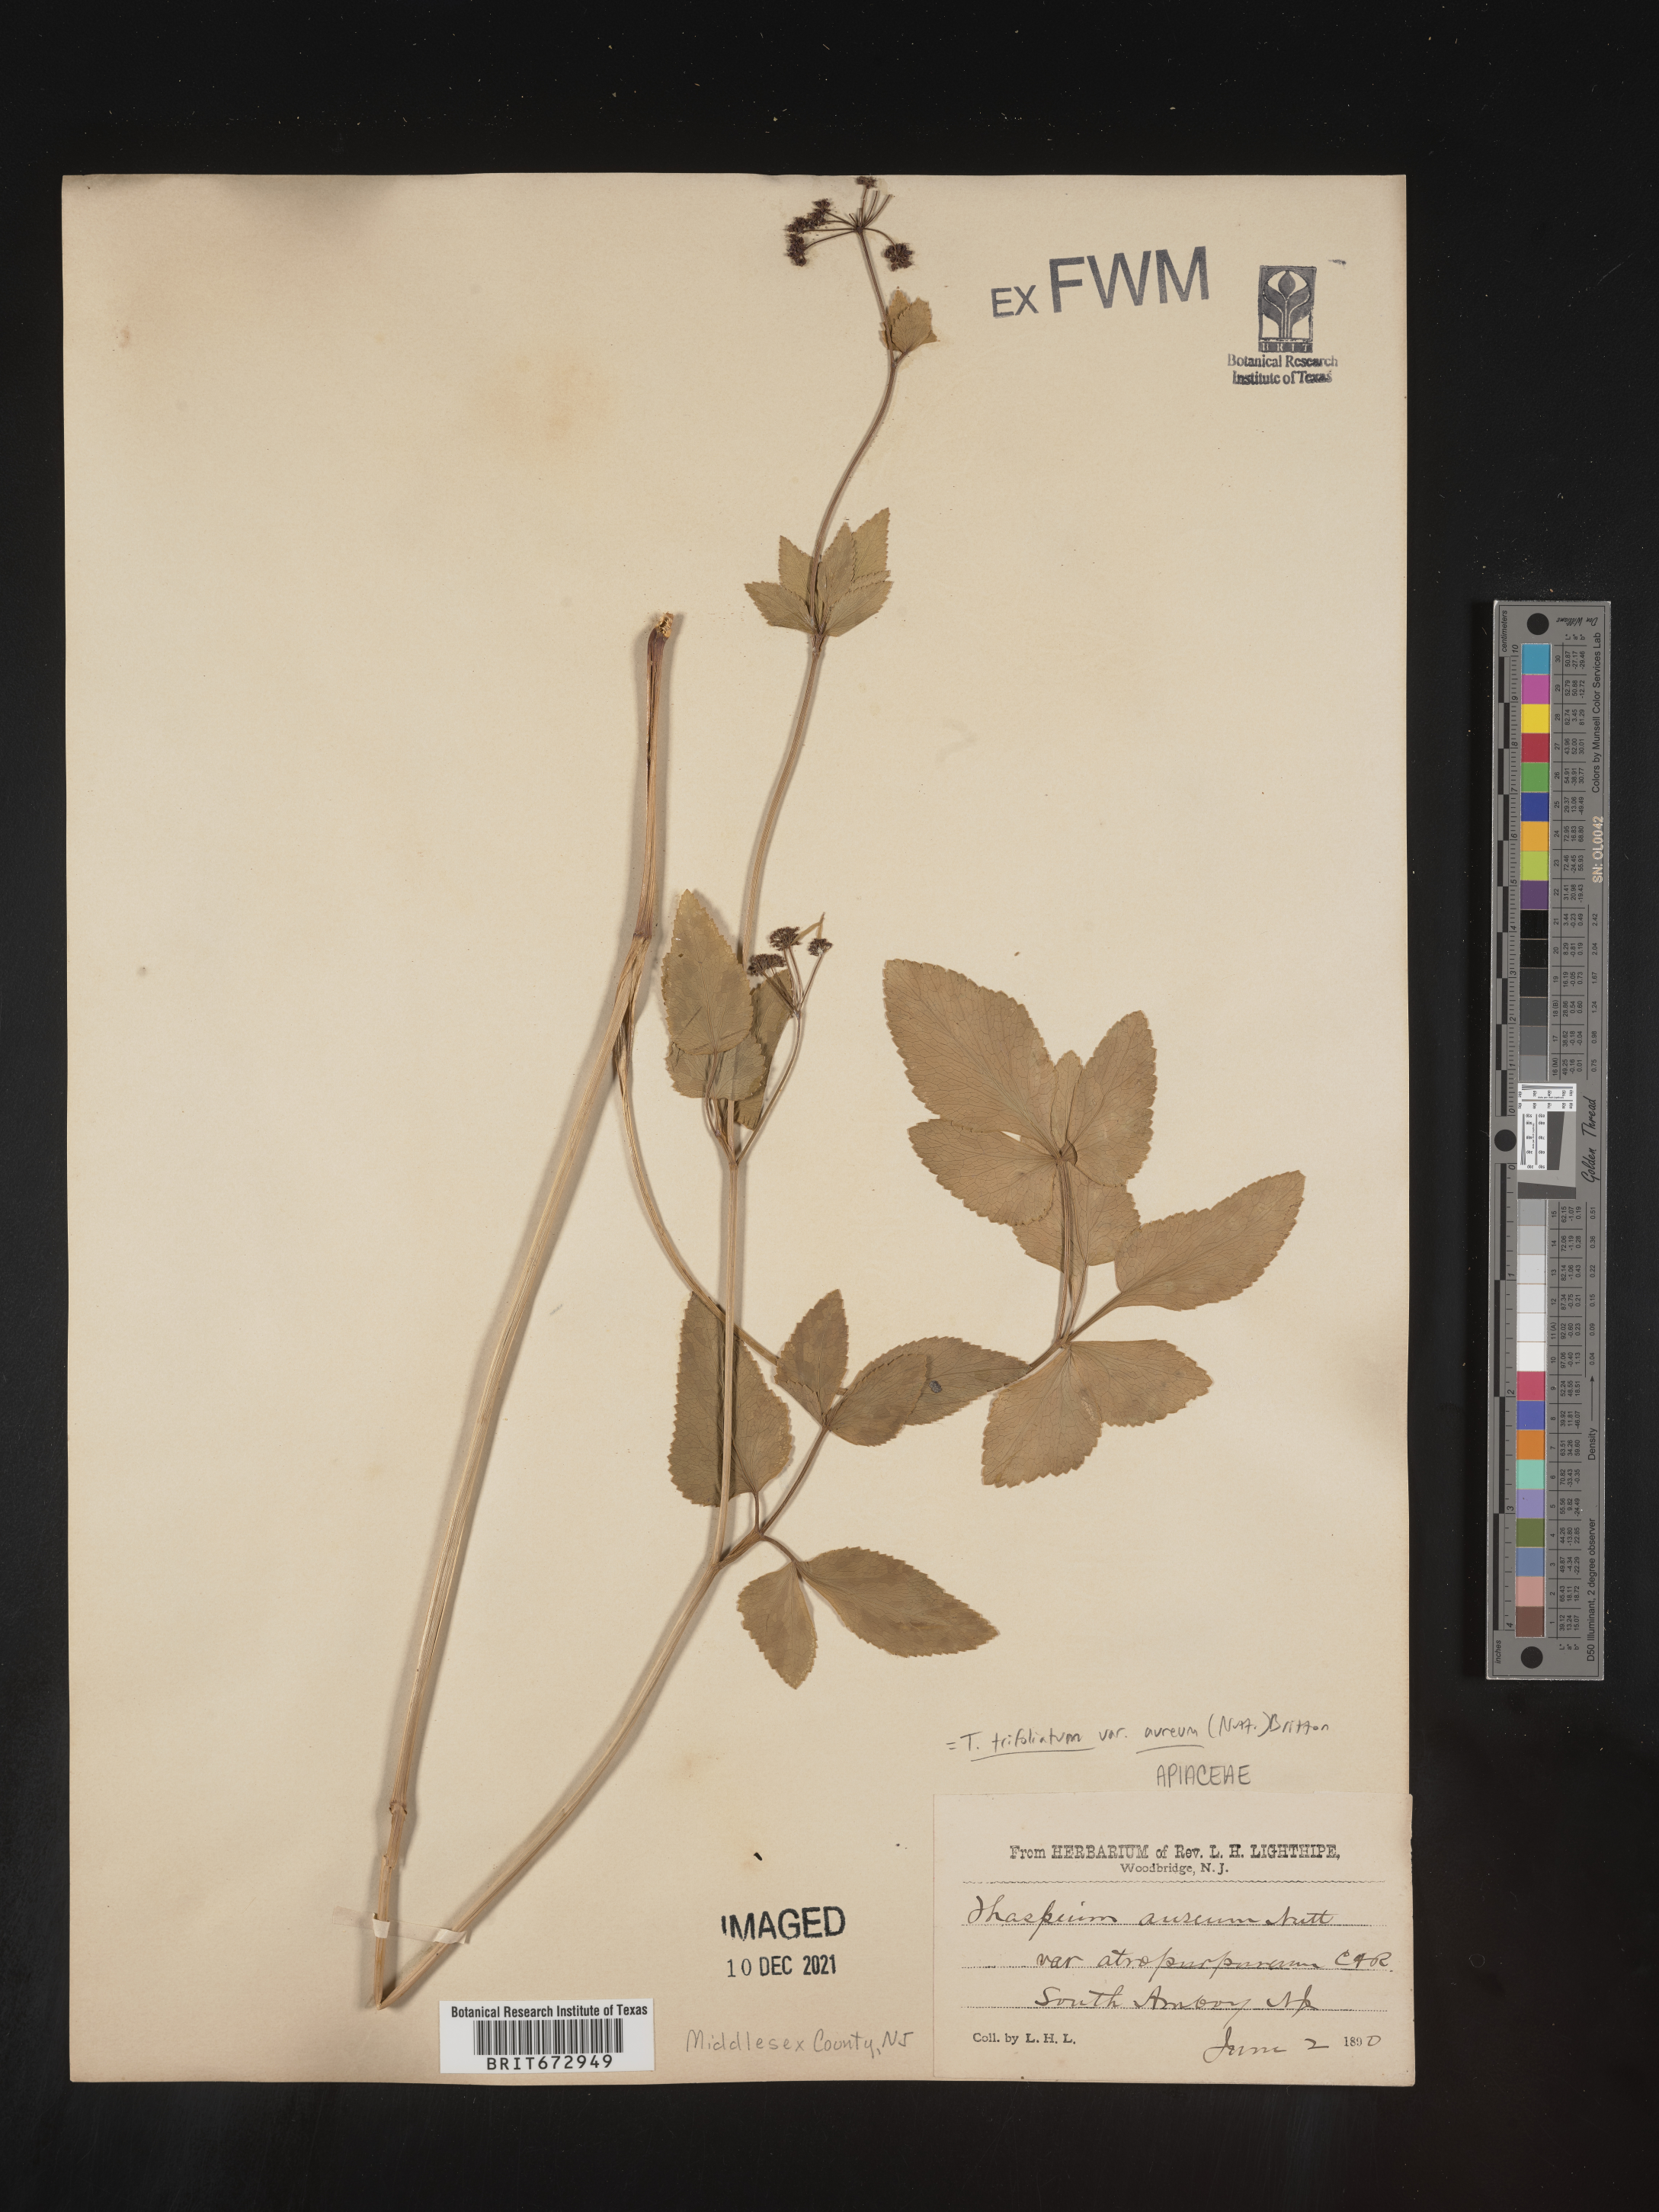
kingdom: Plantae
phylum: Tracheophyta
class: Magnoliopsida
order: Apiales
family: Apiaceae
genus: Thaspium
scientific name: Thaspium
